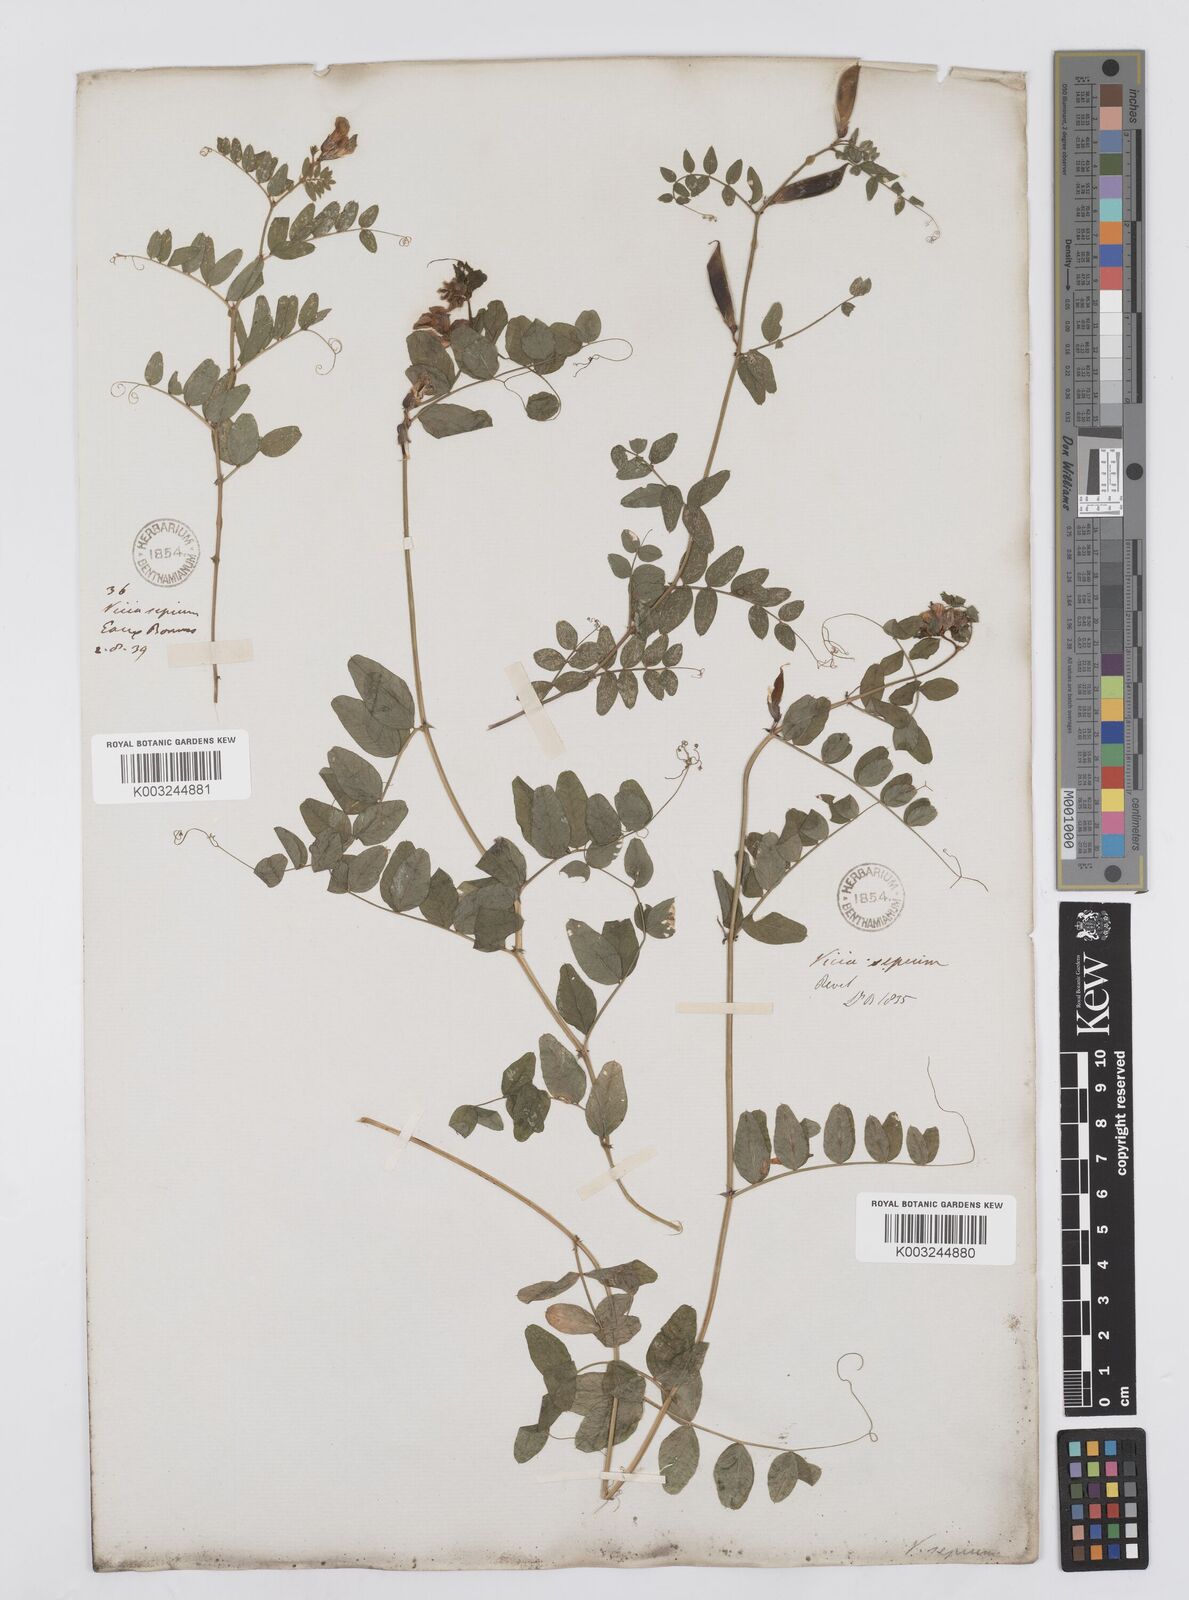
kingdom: Plantae
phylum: Tracheophyta
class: Magnoliopsida
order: Fabales
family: Fabaceae
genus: Vicia
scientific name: Vicia sepium
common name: Bush vetch
